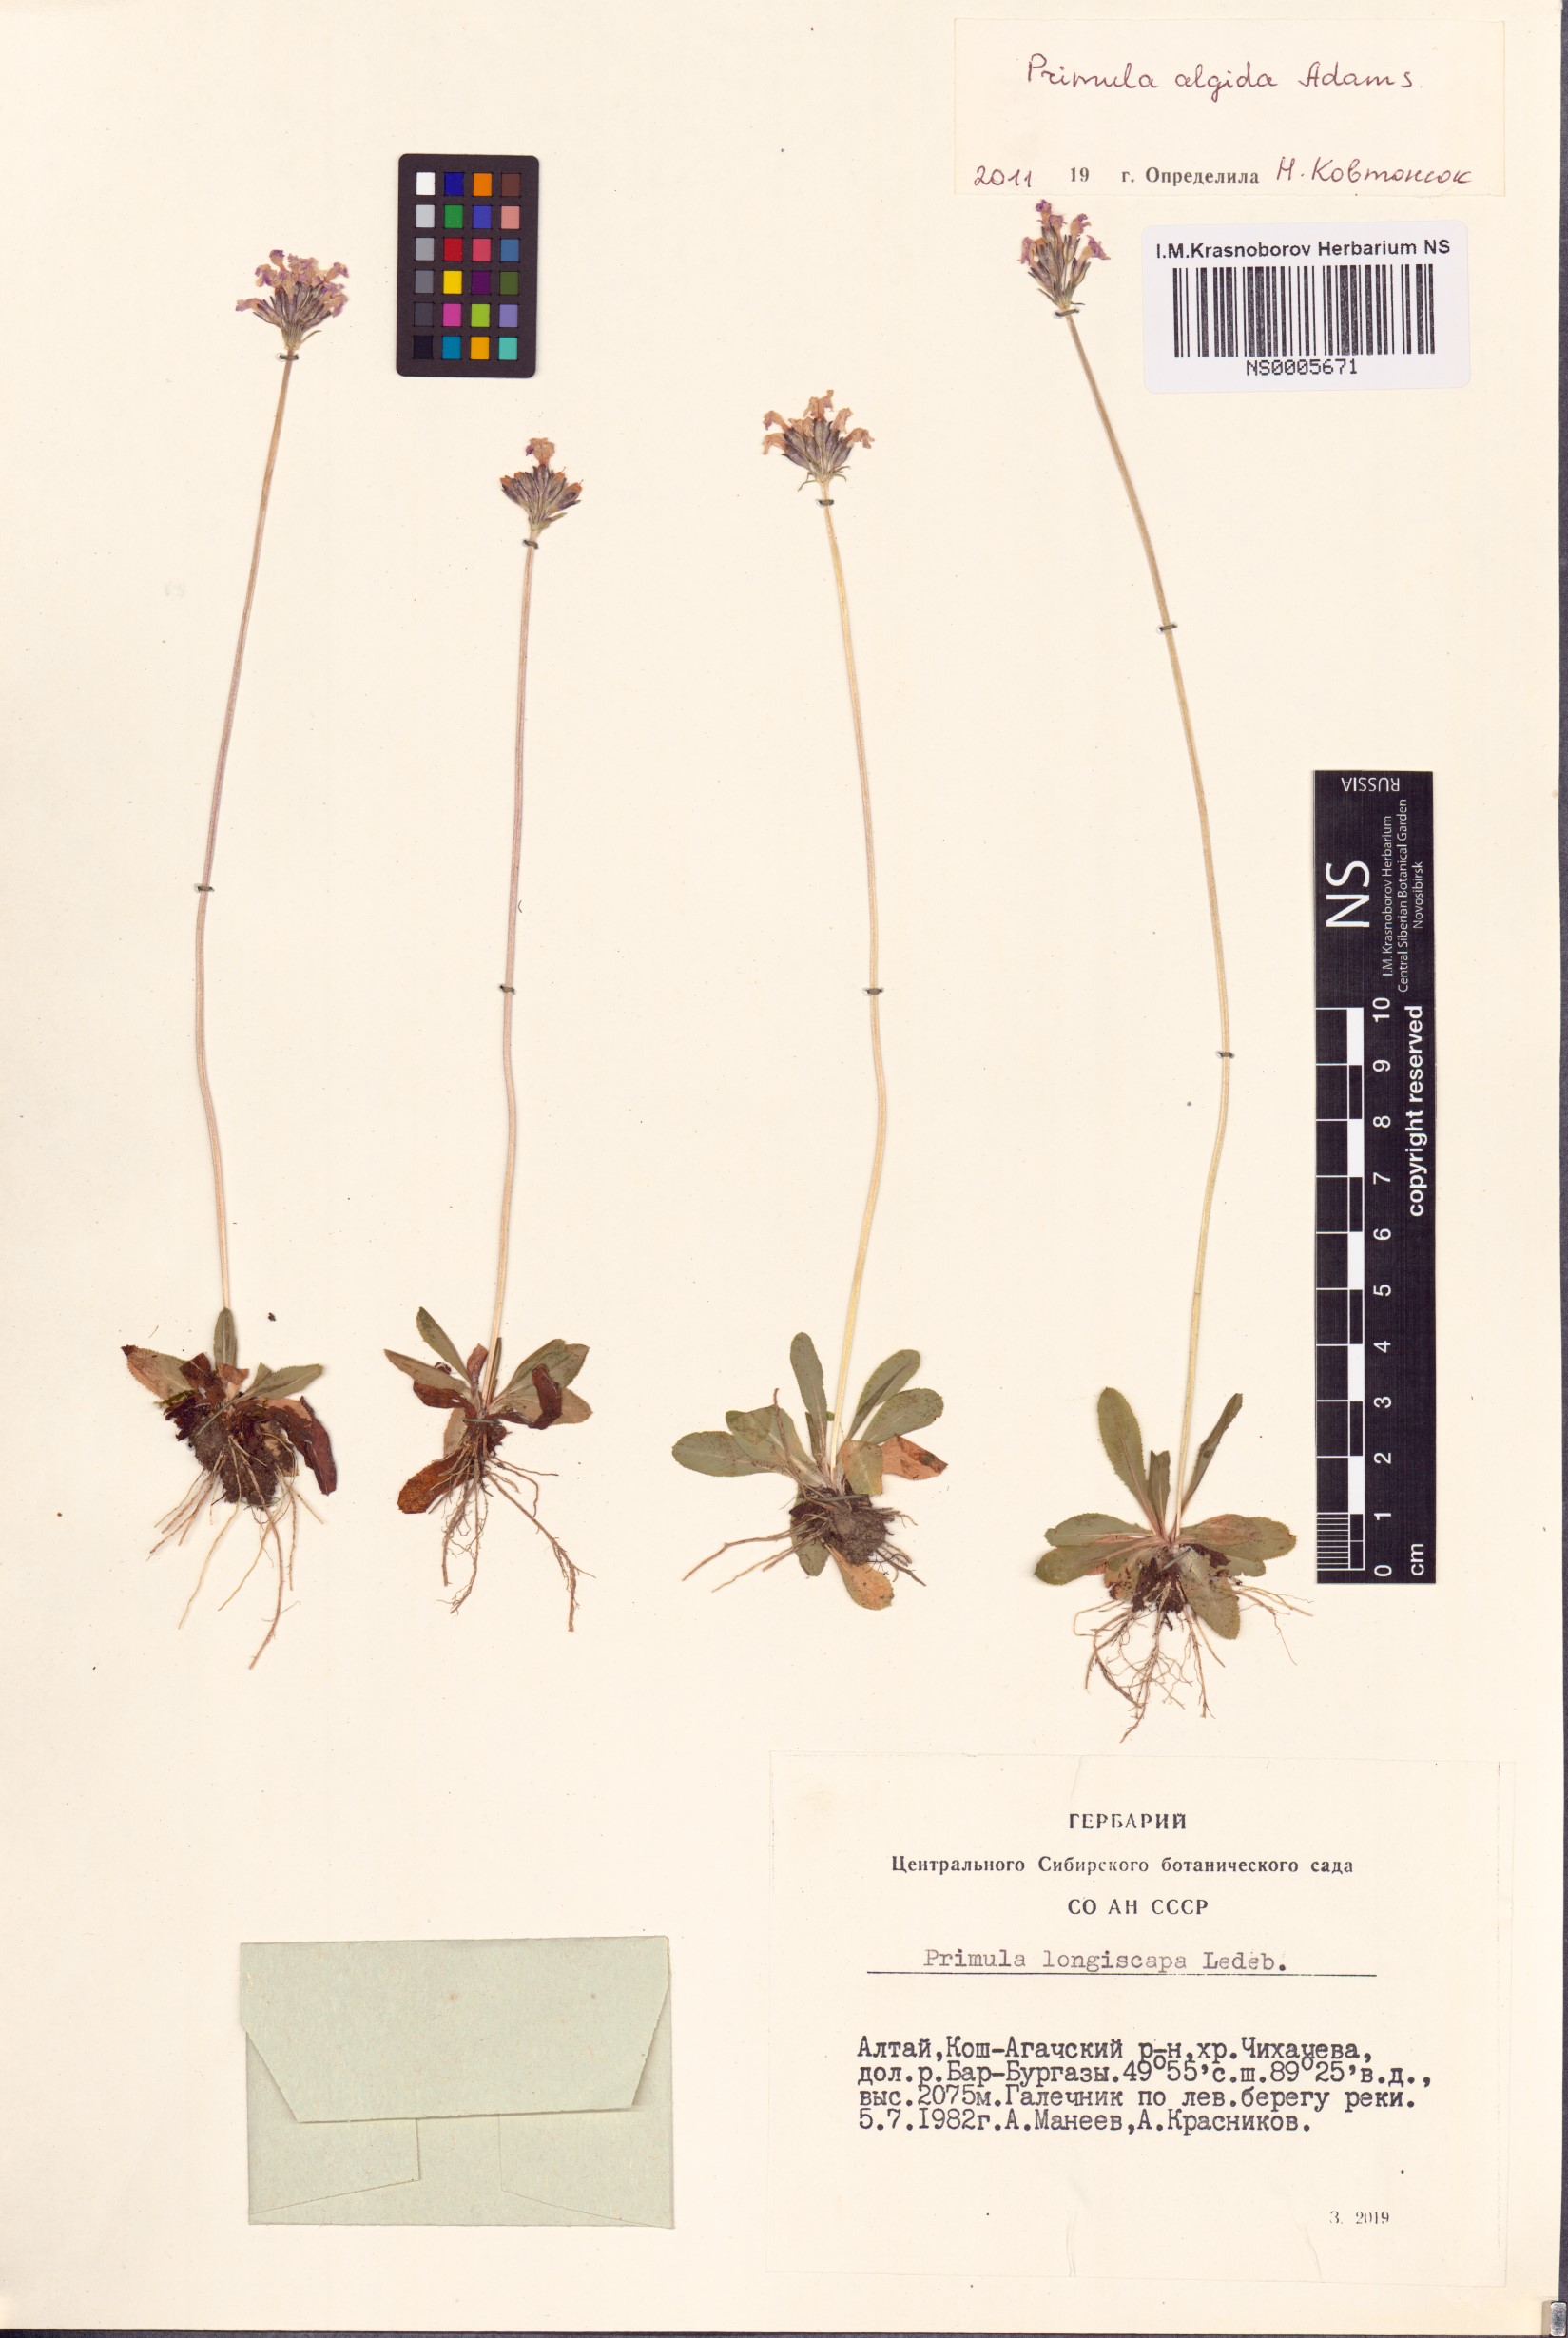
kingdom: Plantae
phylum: Tracheophyta
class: Magnoliopsida
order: Ericales
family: Primulaceae
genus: Primula
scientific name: Primula algida
